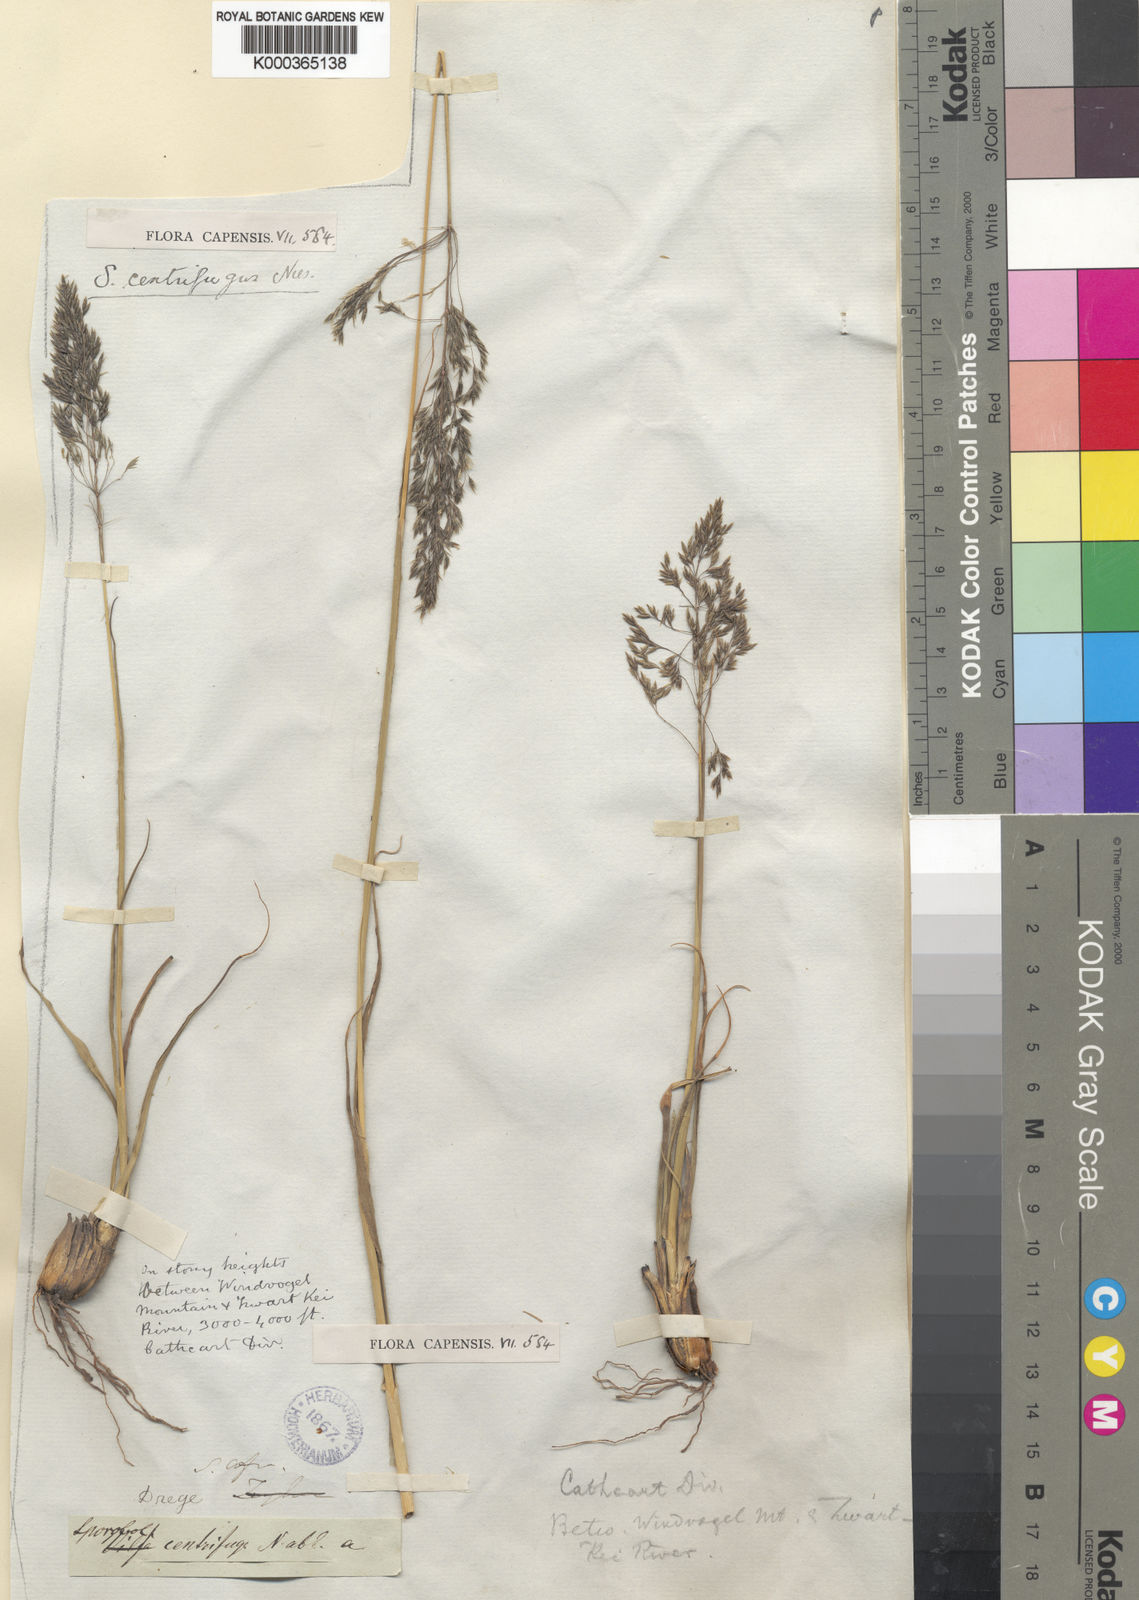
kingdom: Plantae
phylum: Tracheophyta
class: Liliopsida
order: Poales
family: Poaceae
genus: Sporobolus
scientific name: Sporobolus centrifugus
